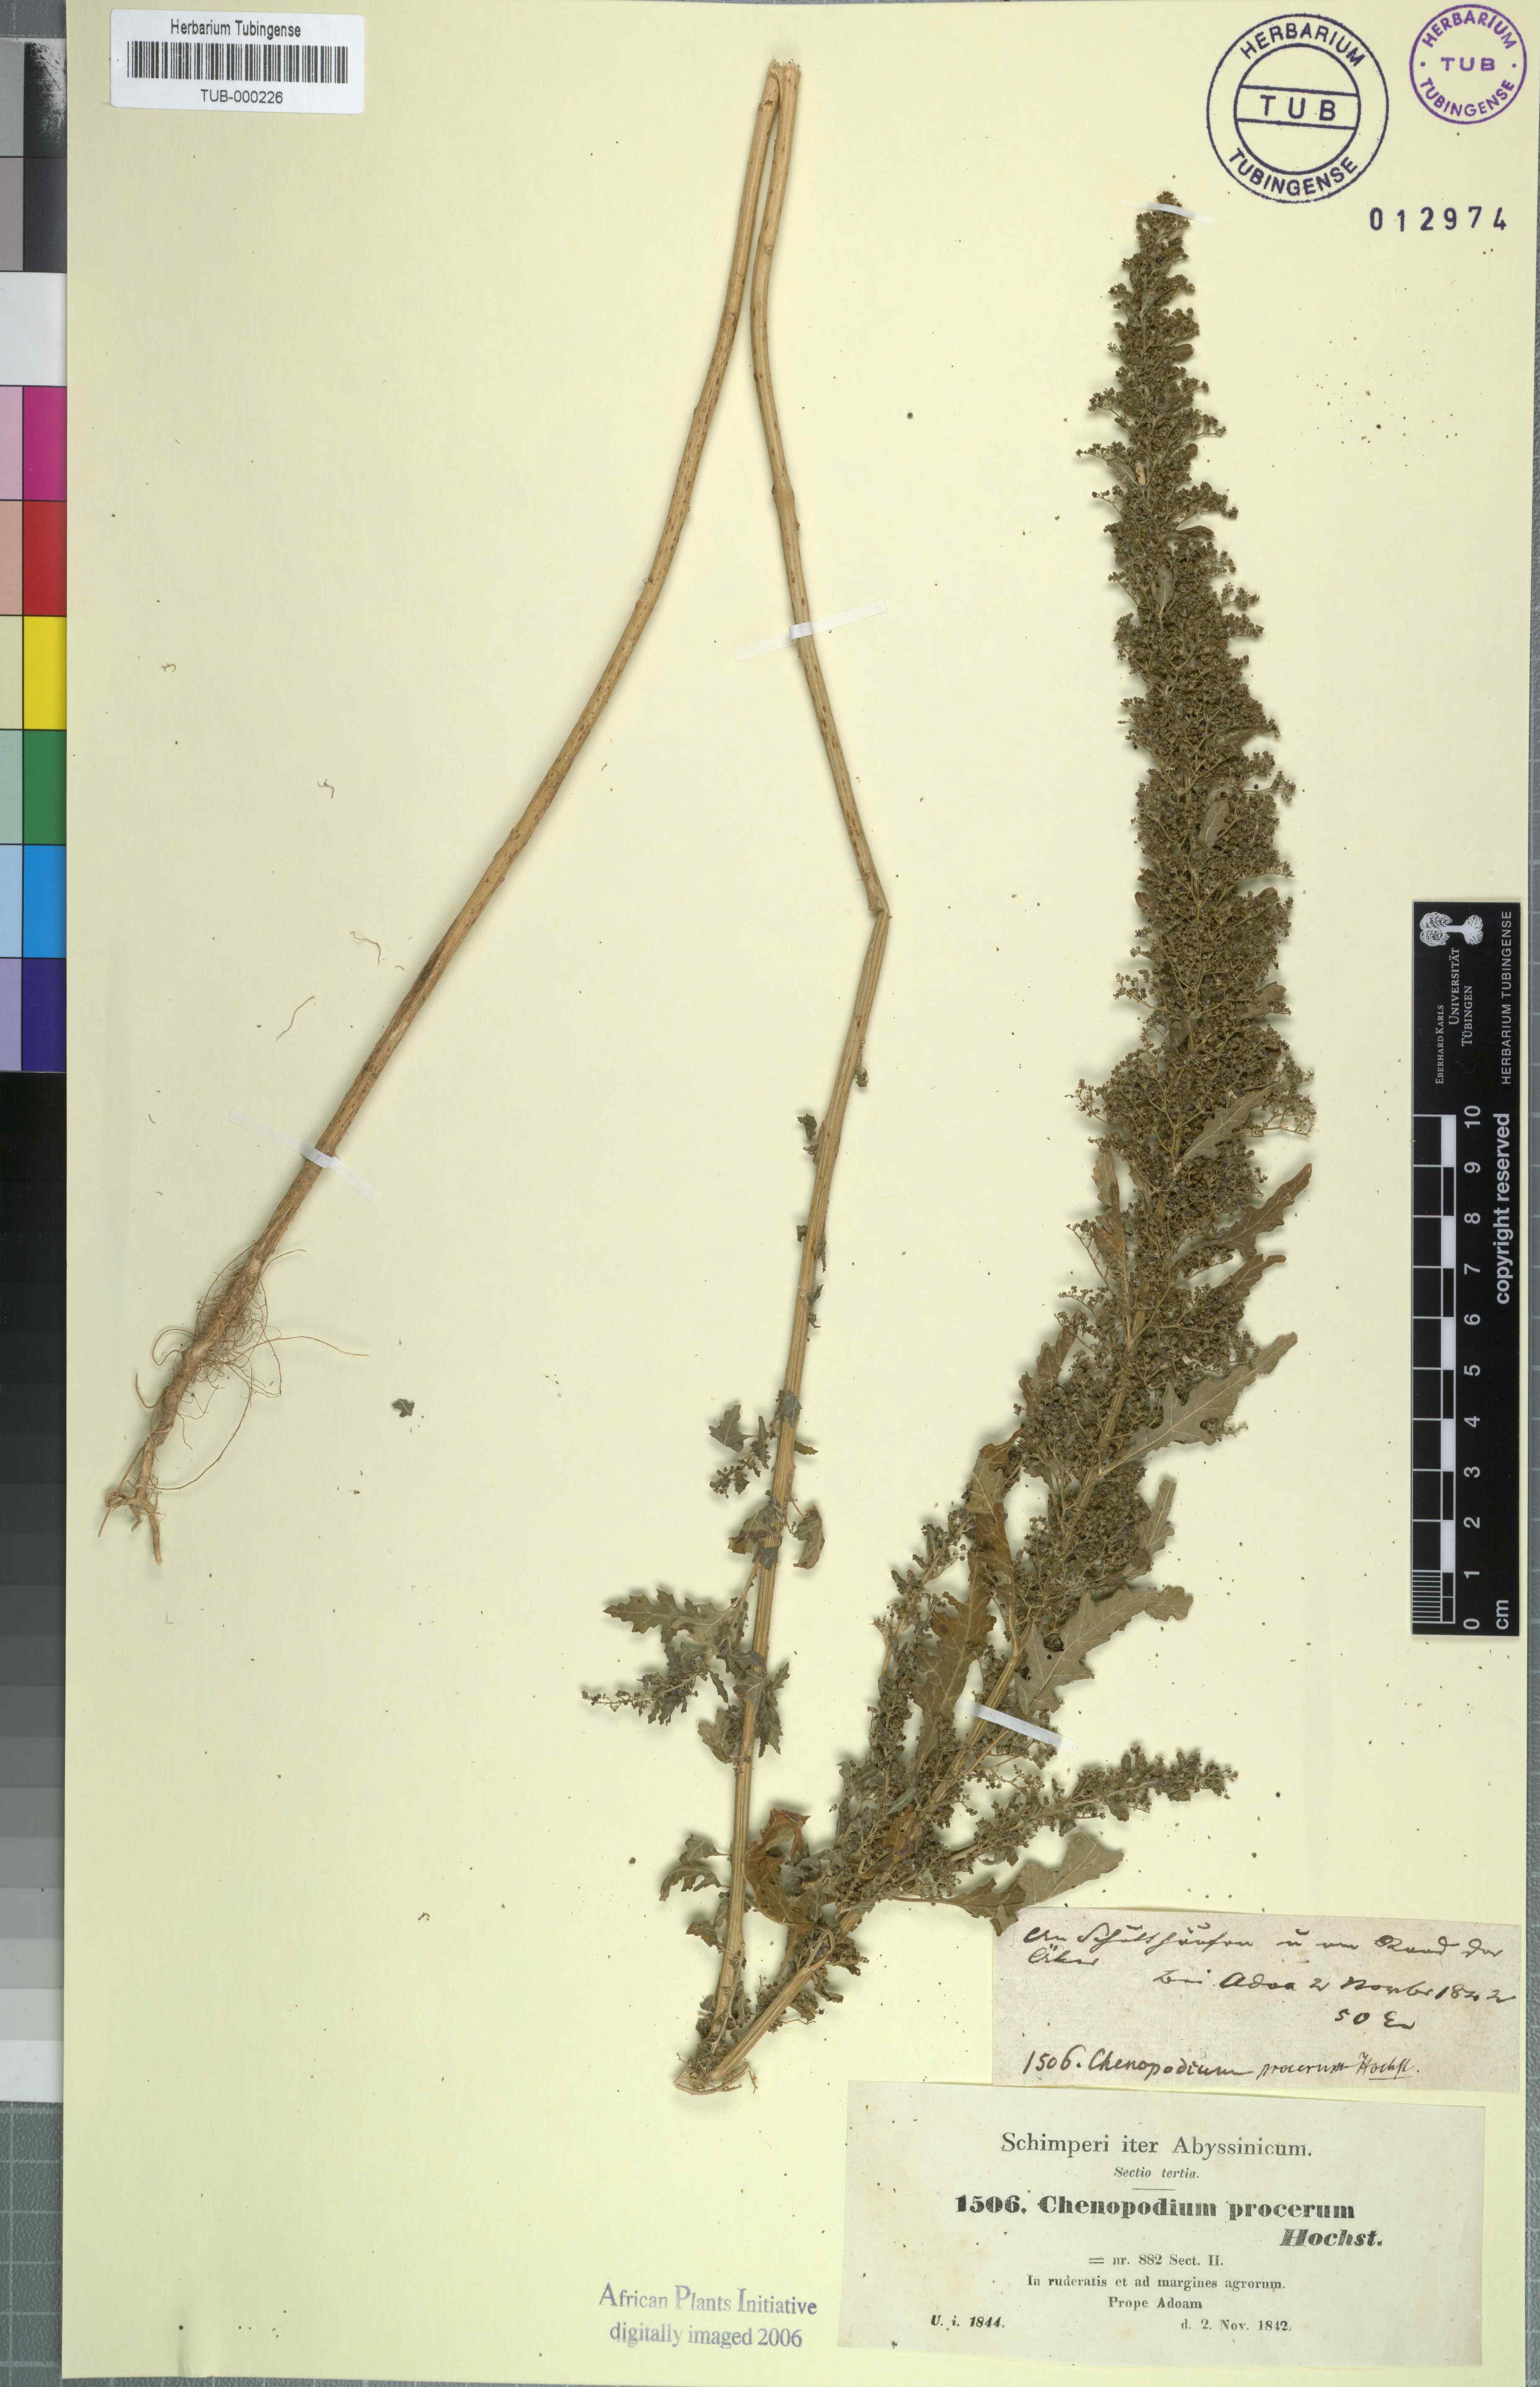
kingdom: Plantae
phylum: Tracheophyta
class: Magnoliopsida
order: Caryophyllales
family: Amaranthaceae
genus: Chenopodium
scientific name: Chenopodium procerum
